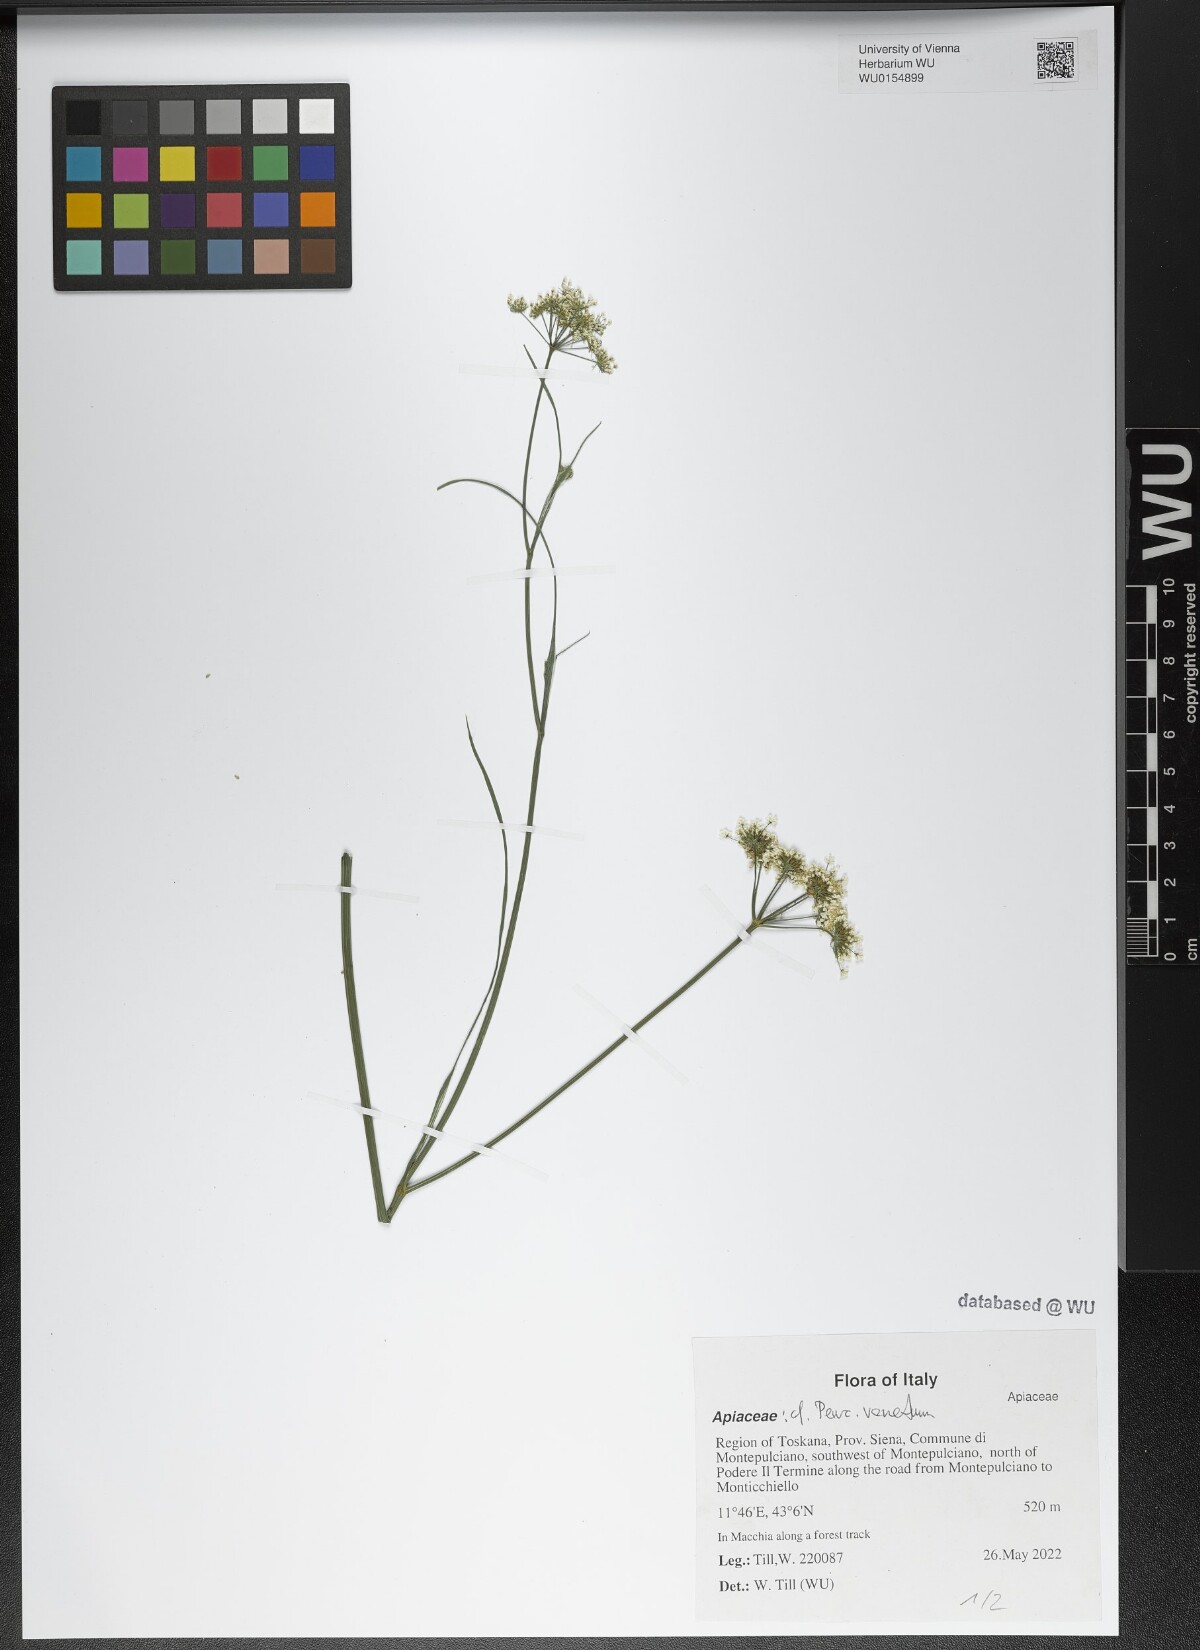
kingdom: Plantae
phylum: Tracheophyta
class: Magnoliopsida
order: Apiales
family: Apiaceae
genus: Xanthoselinum
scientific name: Xanthoselinum alsaticum
